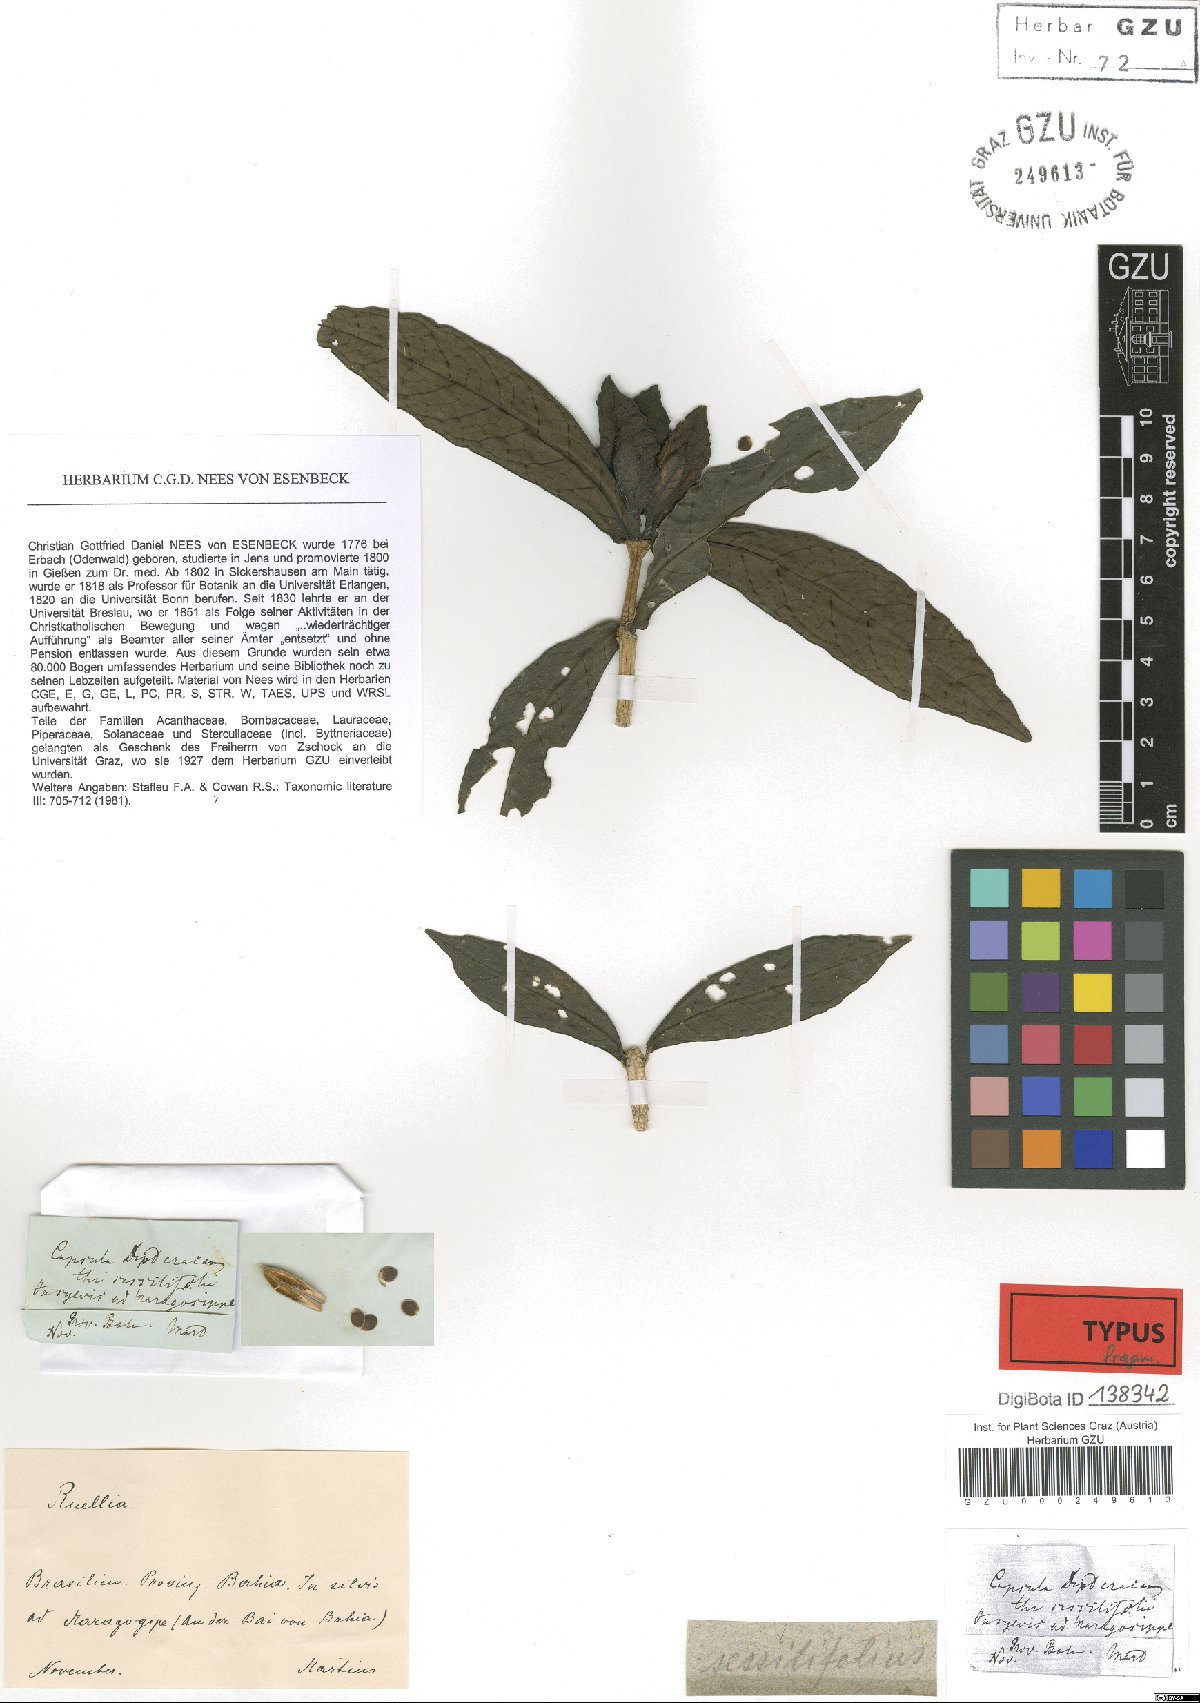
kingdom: Plantae
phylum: Tracheophyta
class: Magnoliopsida
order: Lamiales
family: Acanthaceae
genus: Ruellia
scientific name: Ruellia sessilifolia
